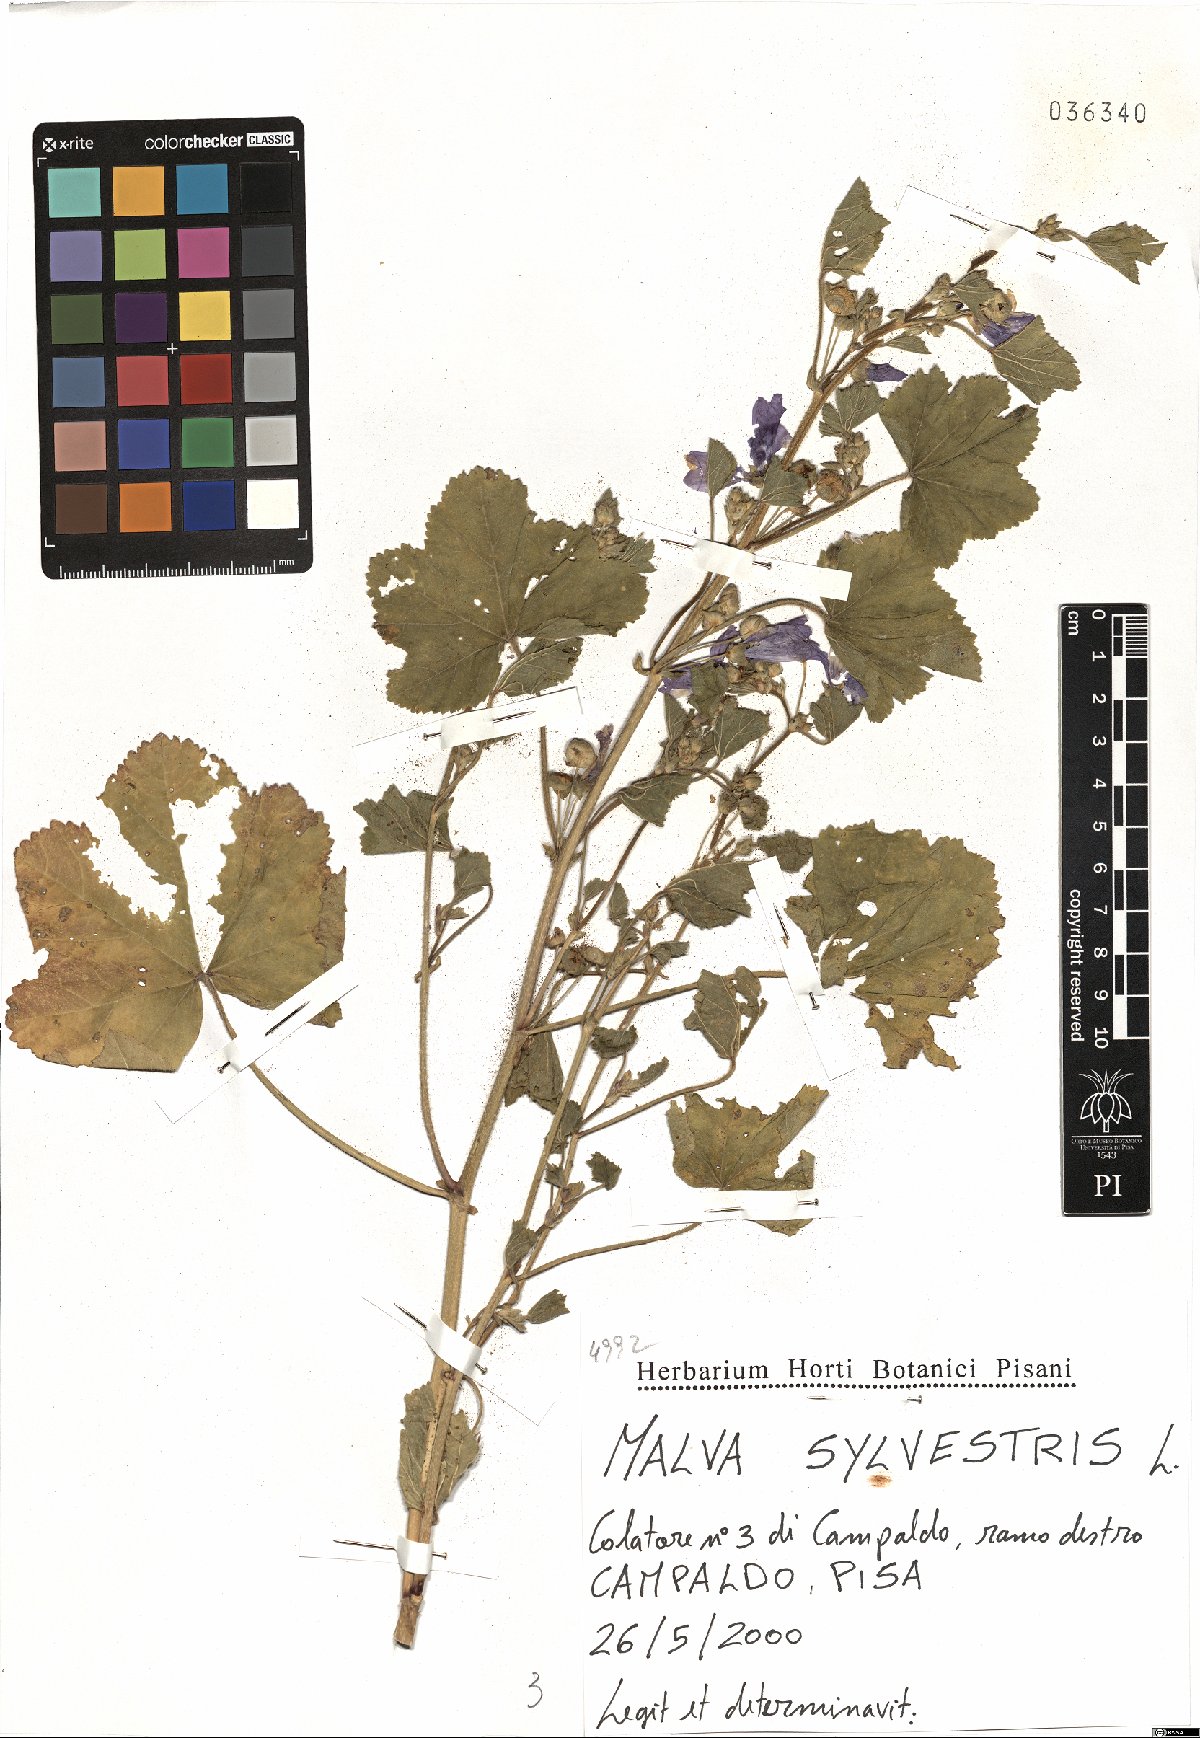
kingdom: Plantae
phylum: Tracheophyta
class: Magnoliopsida
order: Malvales
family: Malvaceae
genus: Malva
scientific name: Malva sylvestris
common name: Common mallow
